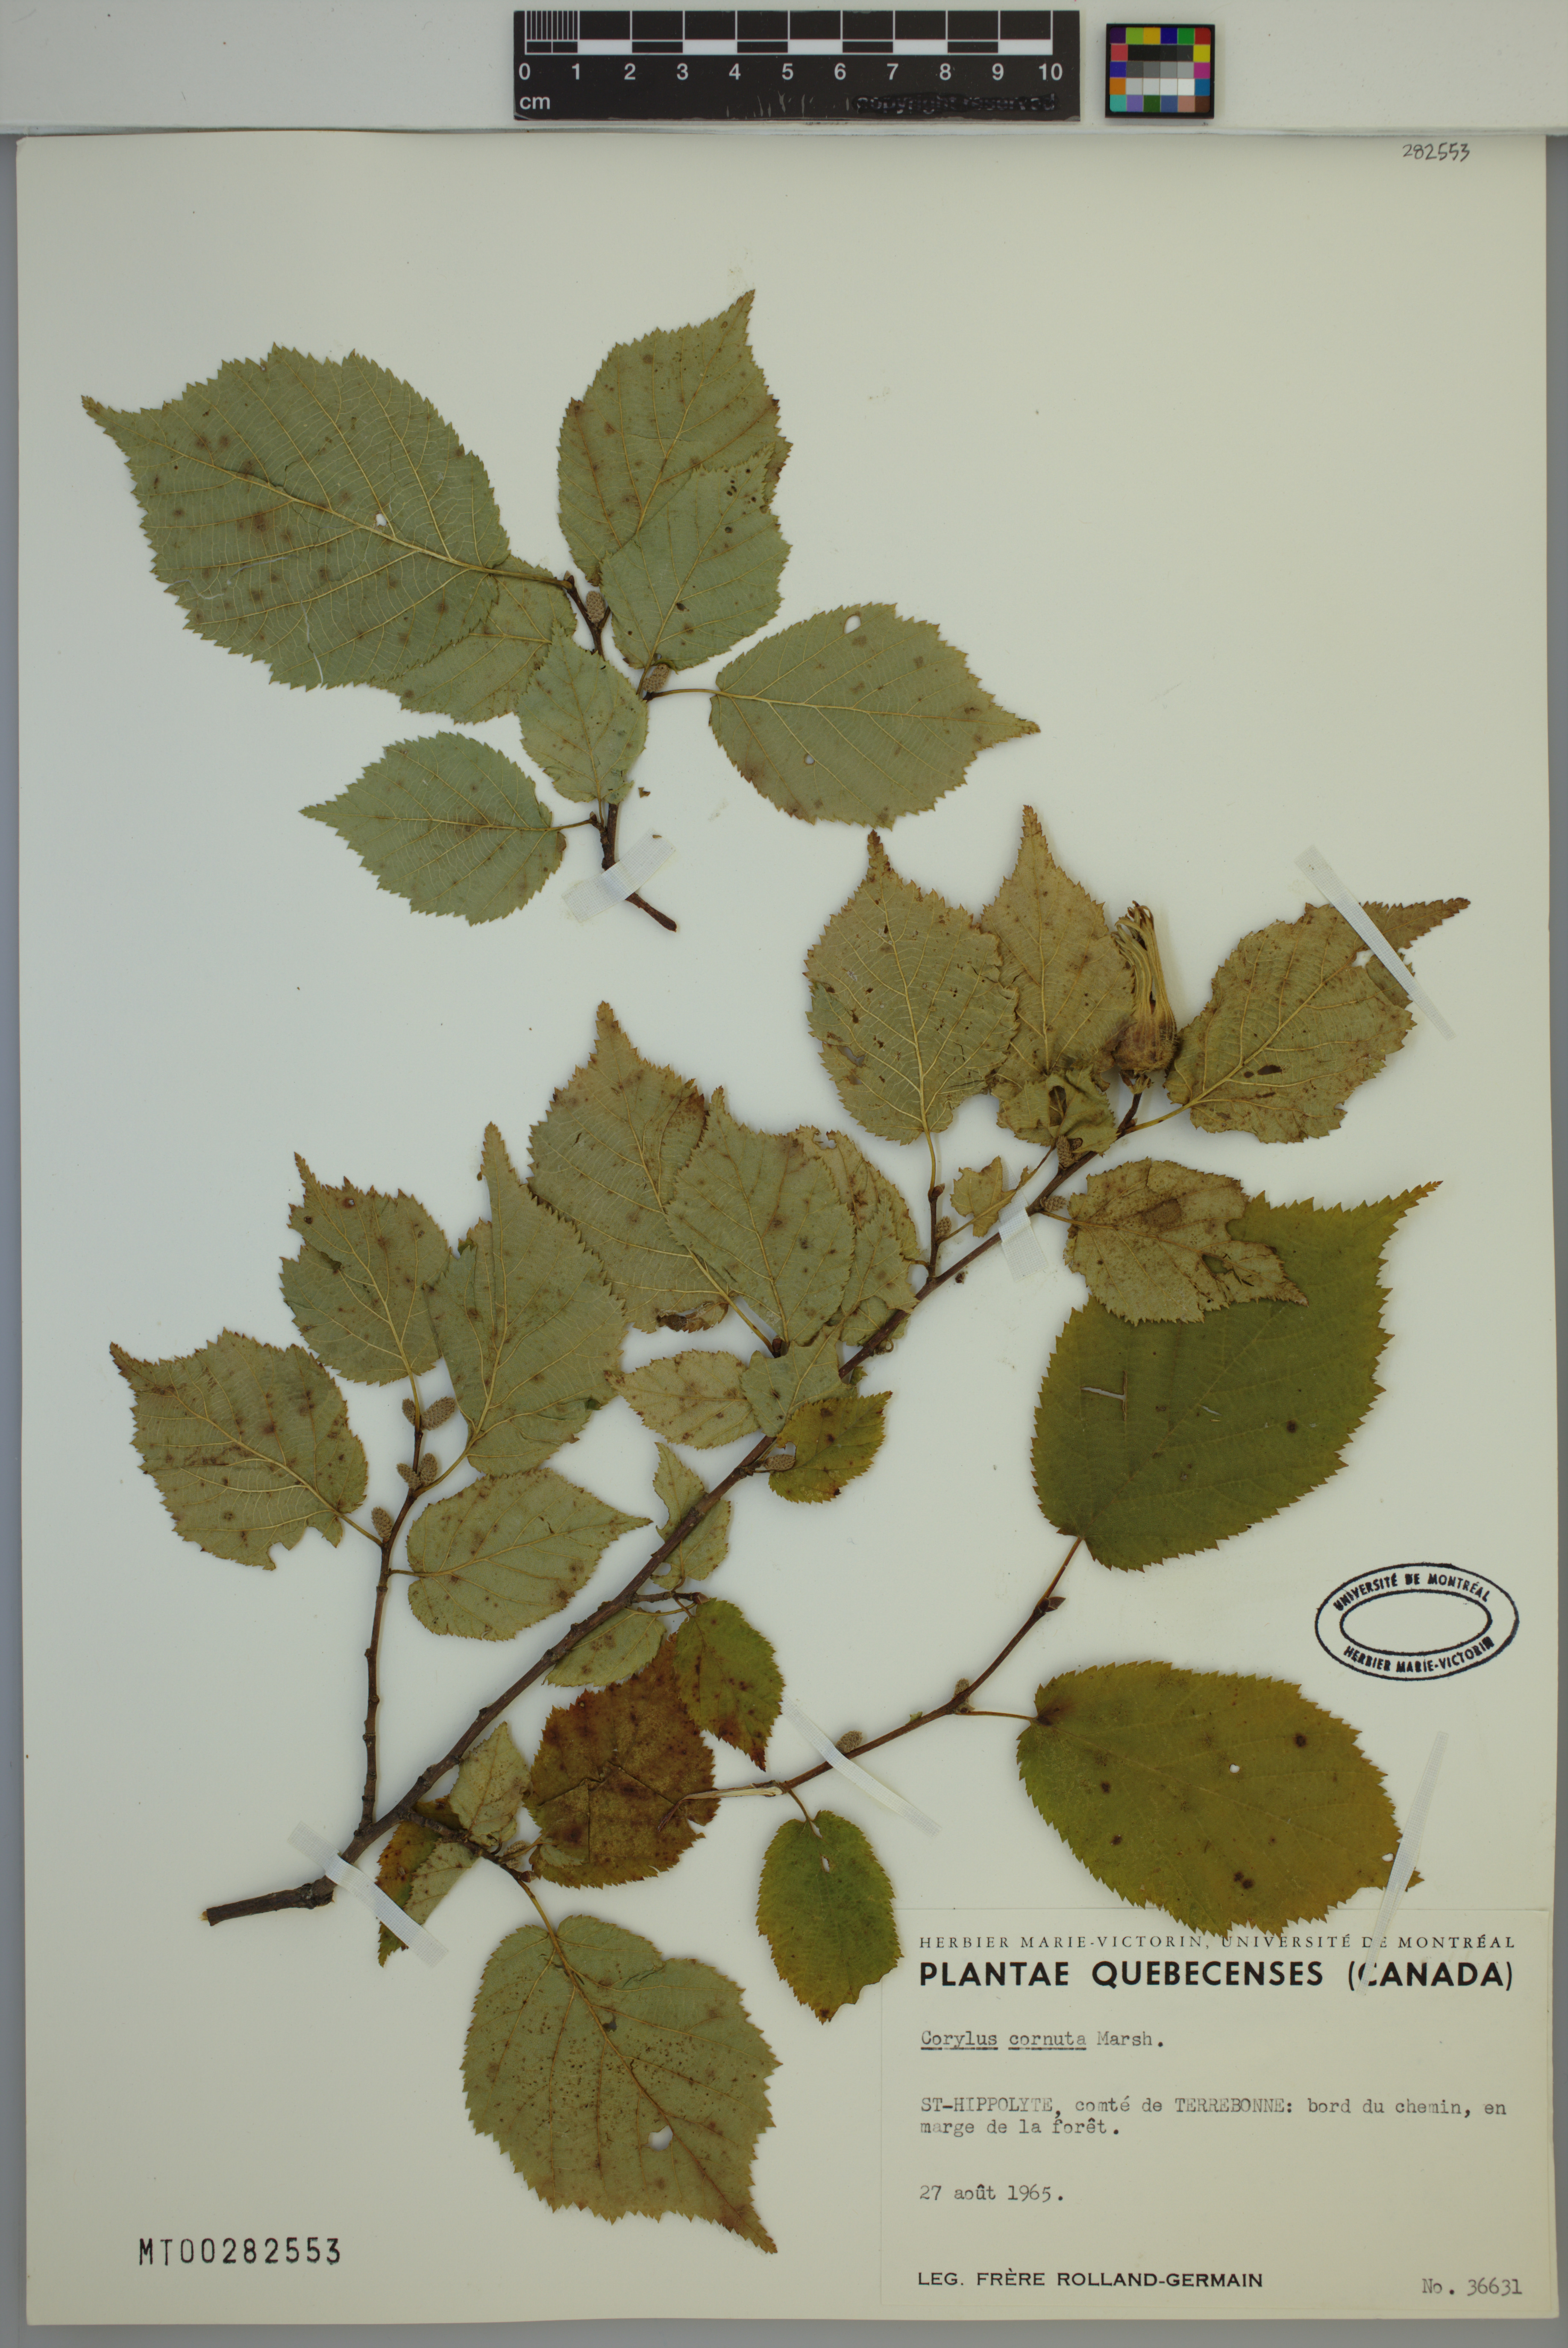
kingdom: Plantae
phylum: Tracheophyta
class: Magnoliopsida
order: Fagales
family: Betulaceae
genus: Corylus
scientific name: Corylus cornuta
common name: Beaked hazel
